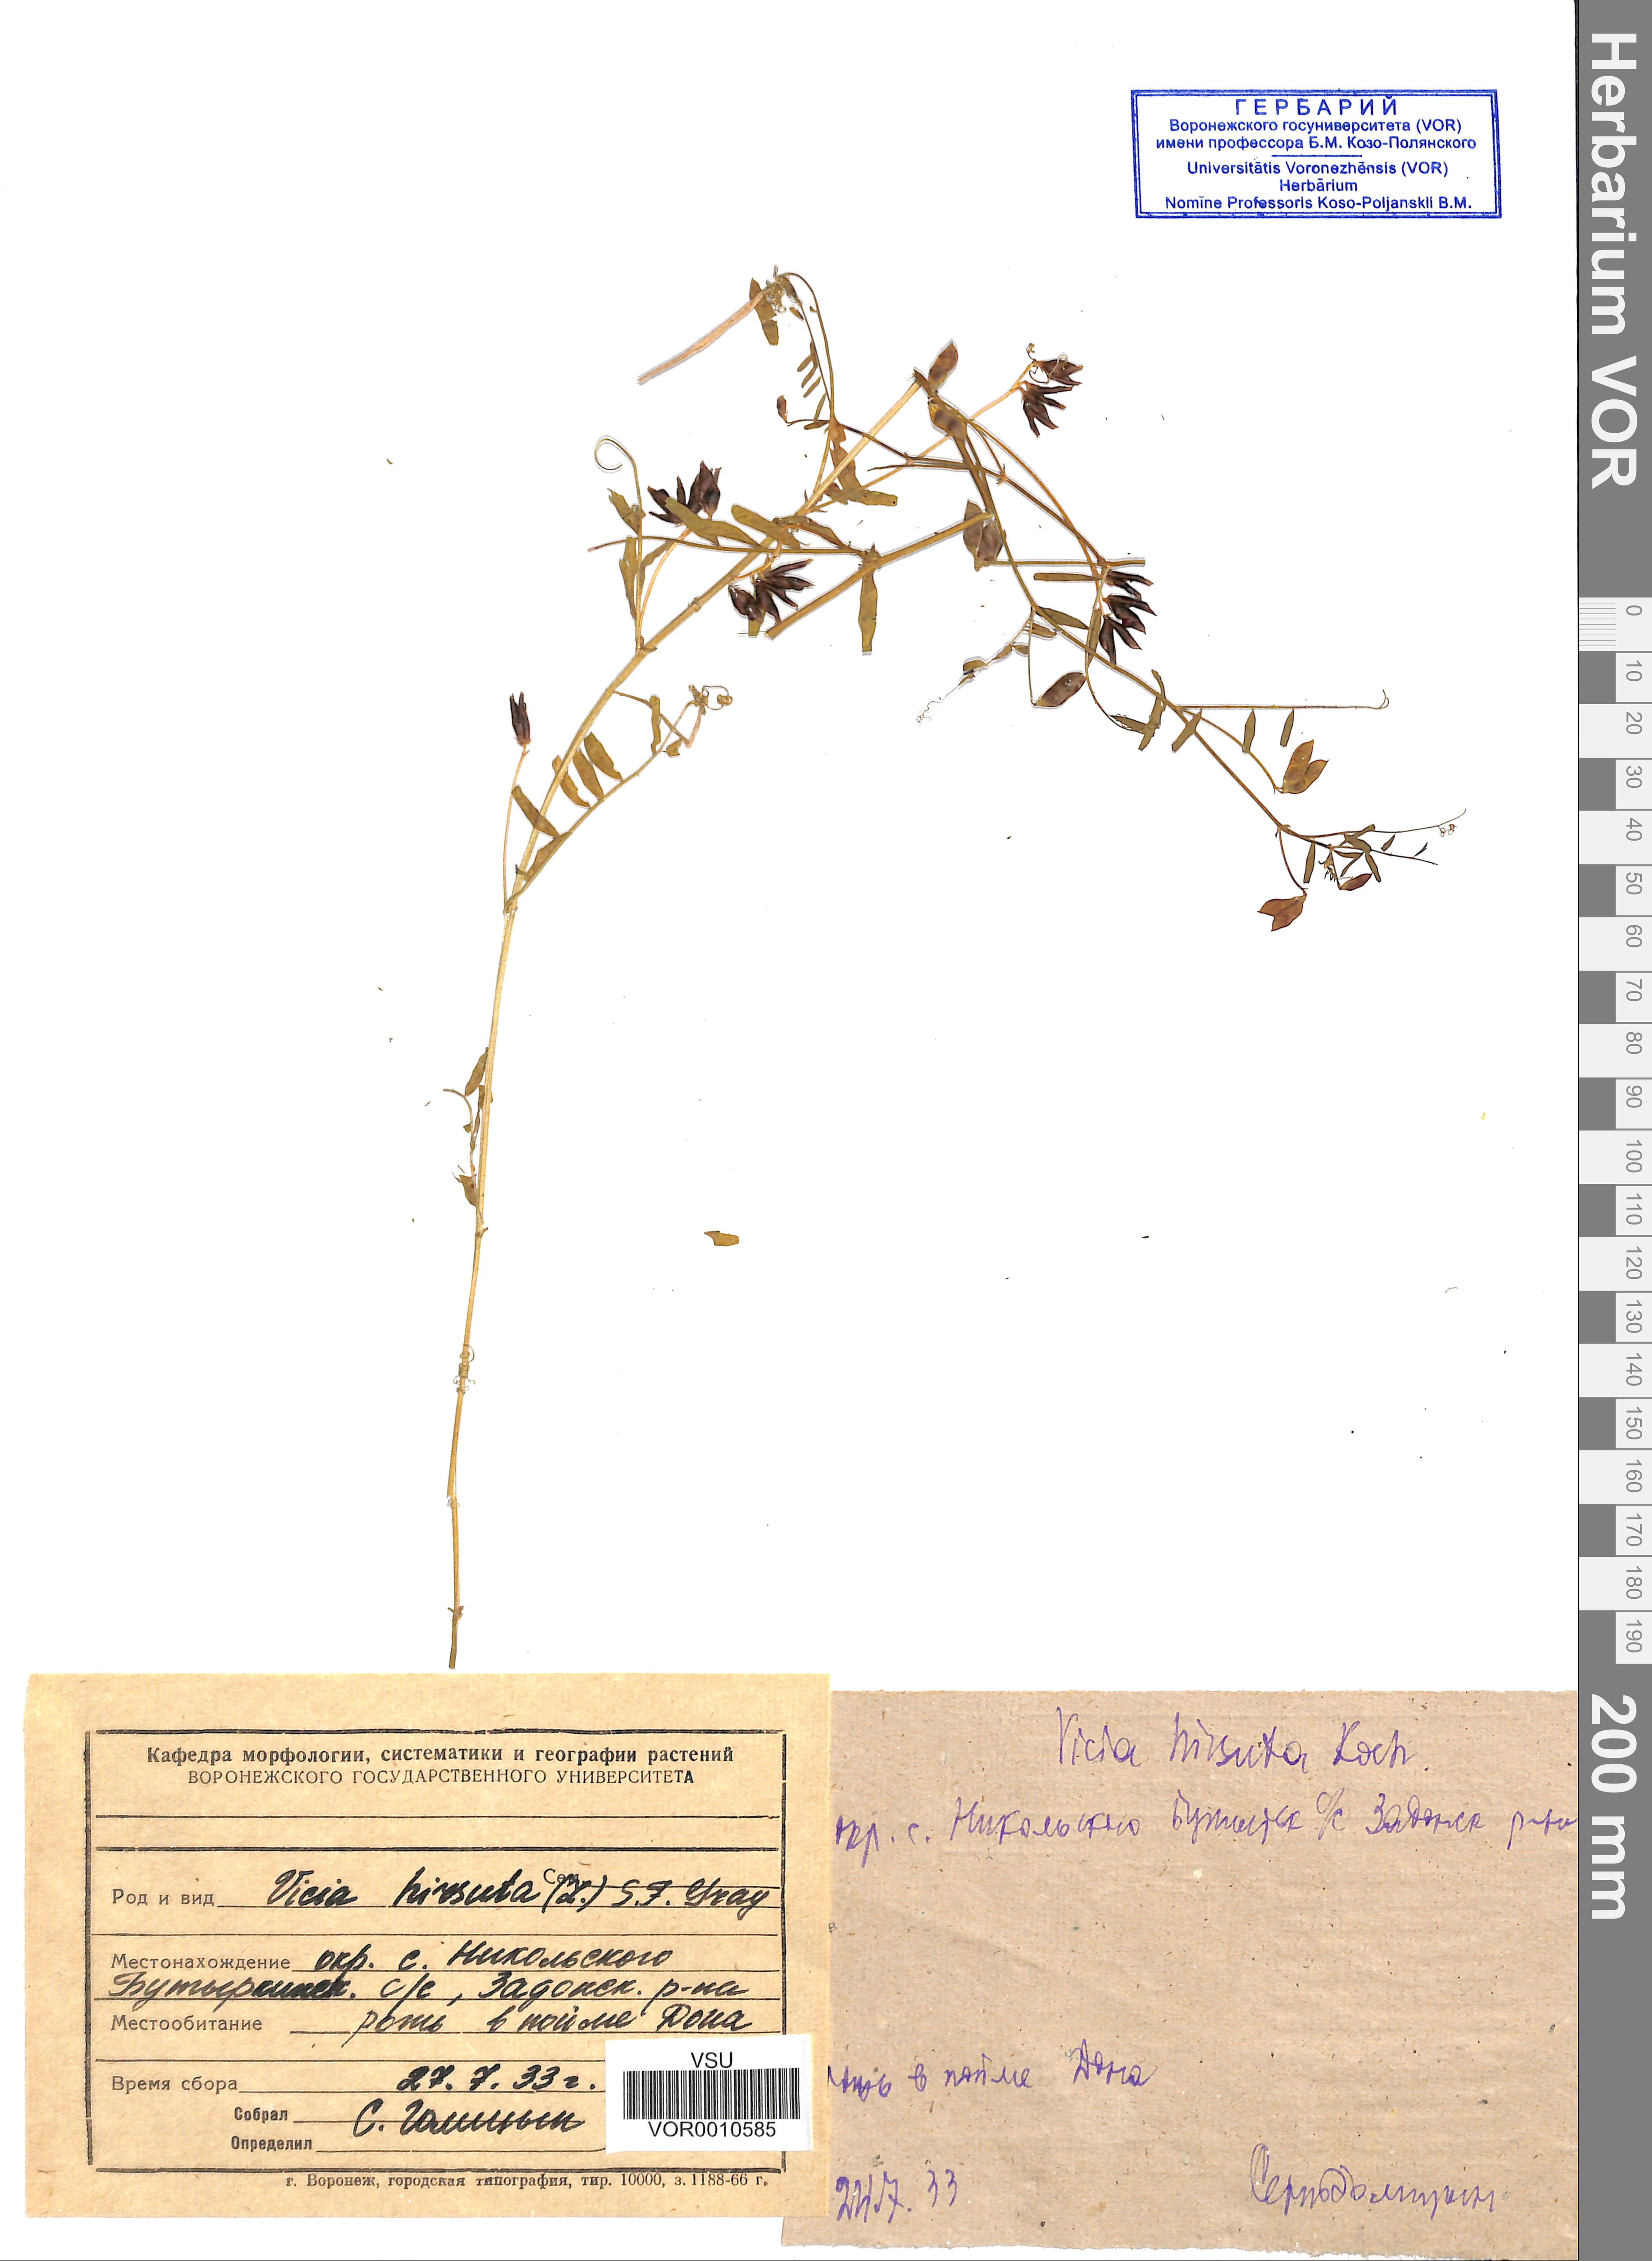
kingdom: Plantae
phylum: Tracheophyta
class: Magnoliopsida
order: Fabales
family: Fabaceae
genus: Vicia
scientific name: Vicia hirsuta
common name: Tiny vetch
